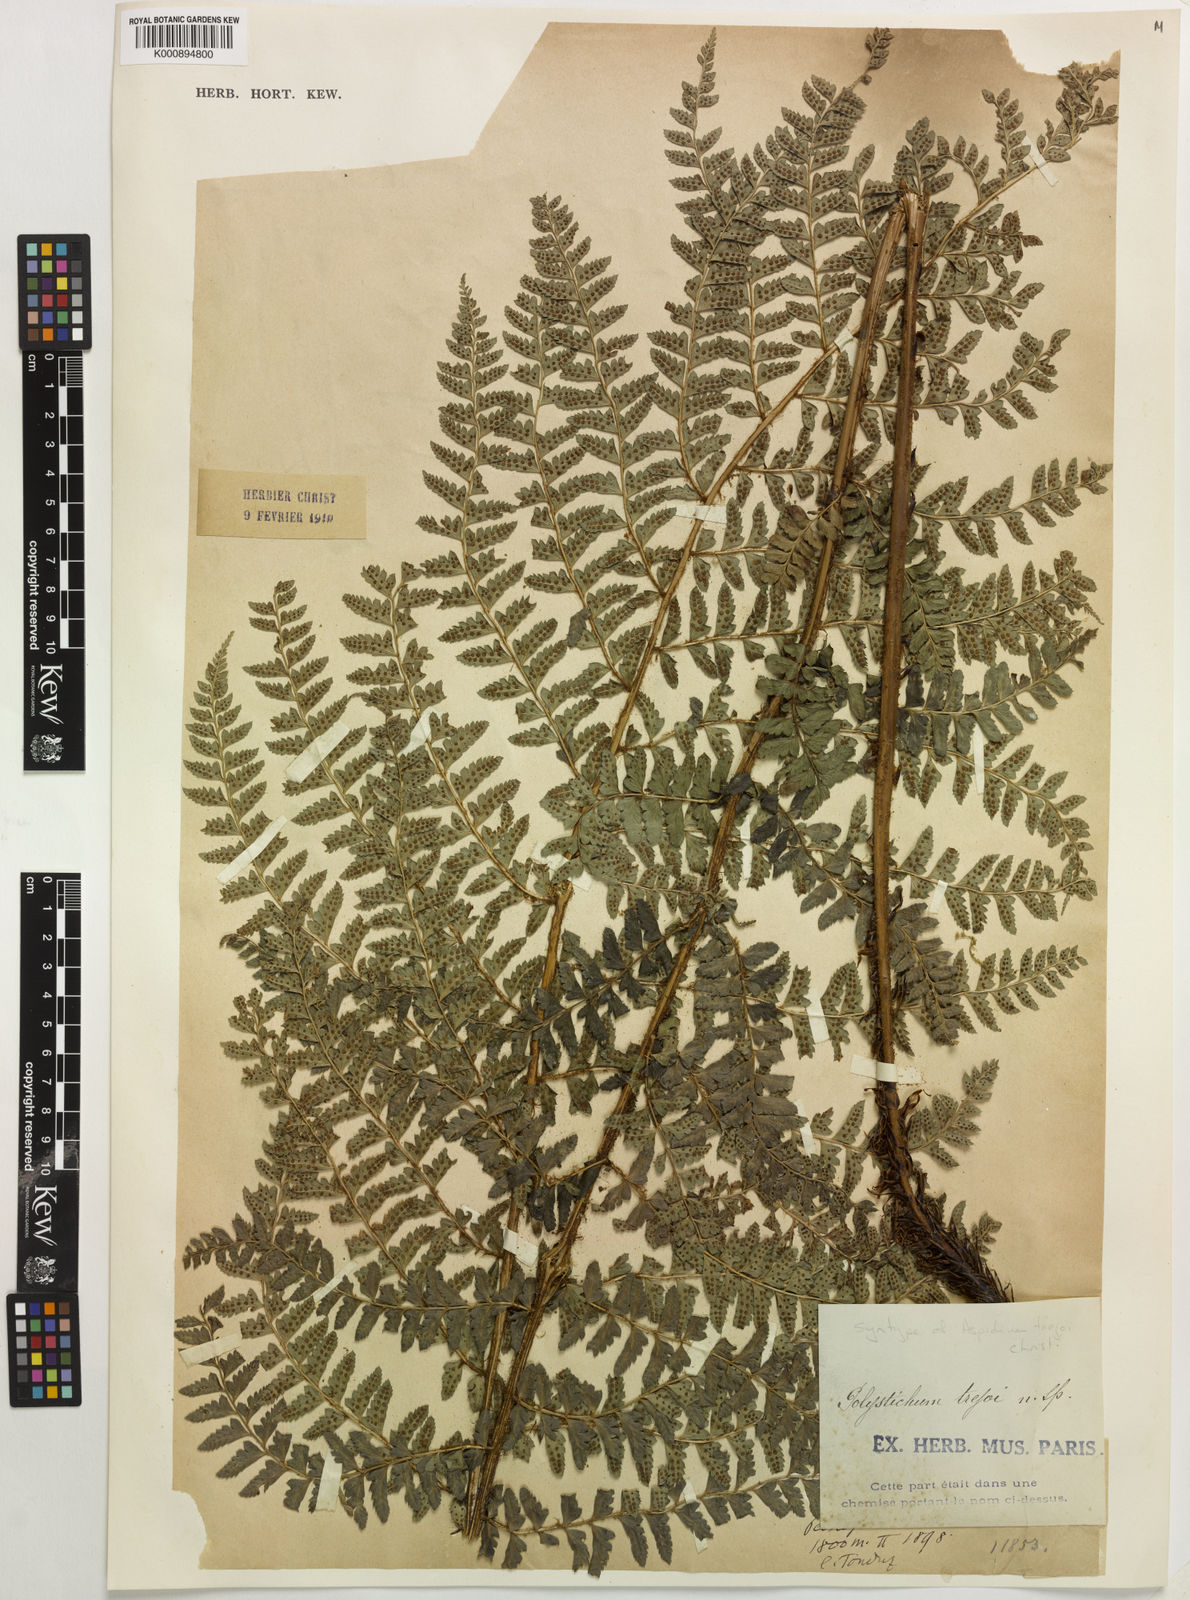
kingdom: Plantae
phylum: Tracheophyta
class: Polypodiopsida
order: Polypodiales
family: Dryopteridaceae
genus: Polystichum
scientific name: Polystichum hartwegii
